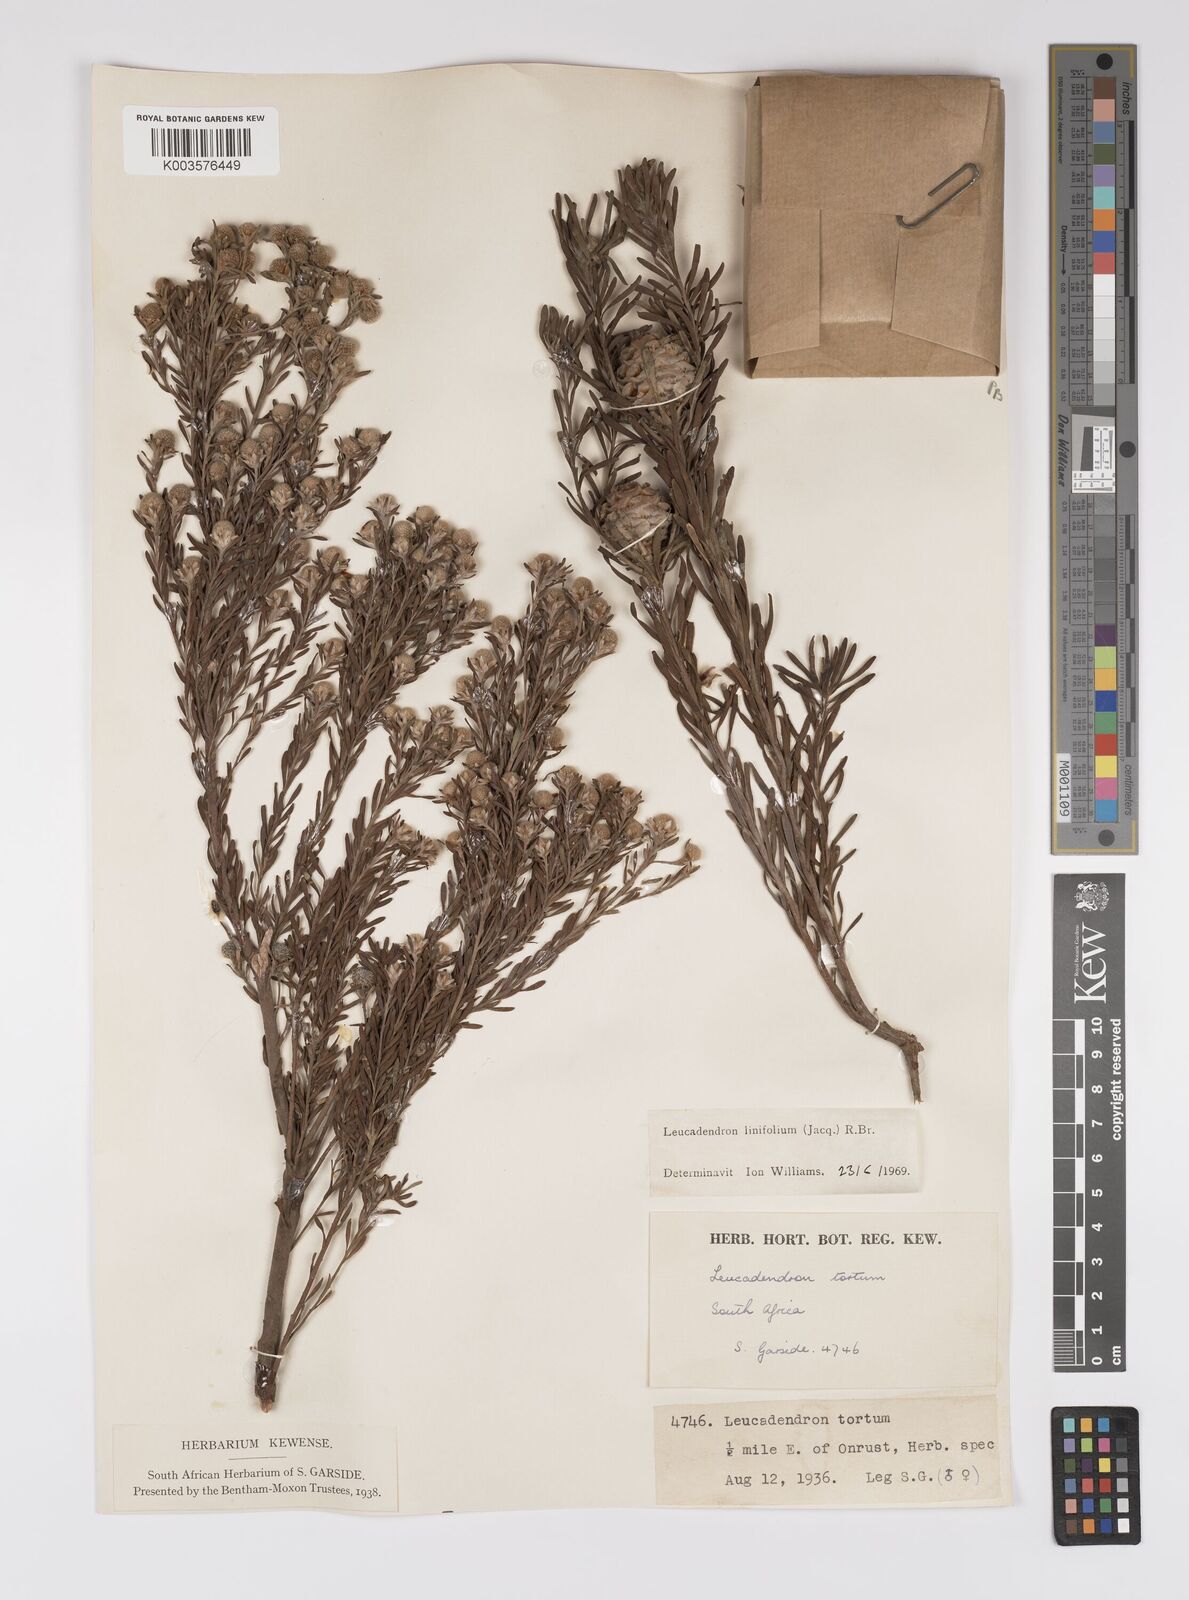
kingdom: Plantae
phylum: Tracheophyta
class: Magnoliopsida
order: Proteales
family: Proteaceae
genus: Leucadendron
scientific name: Leucadendron linifolium
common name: Line-leaf conebush
